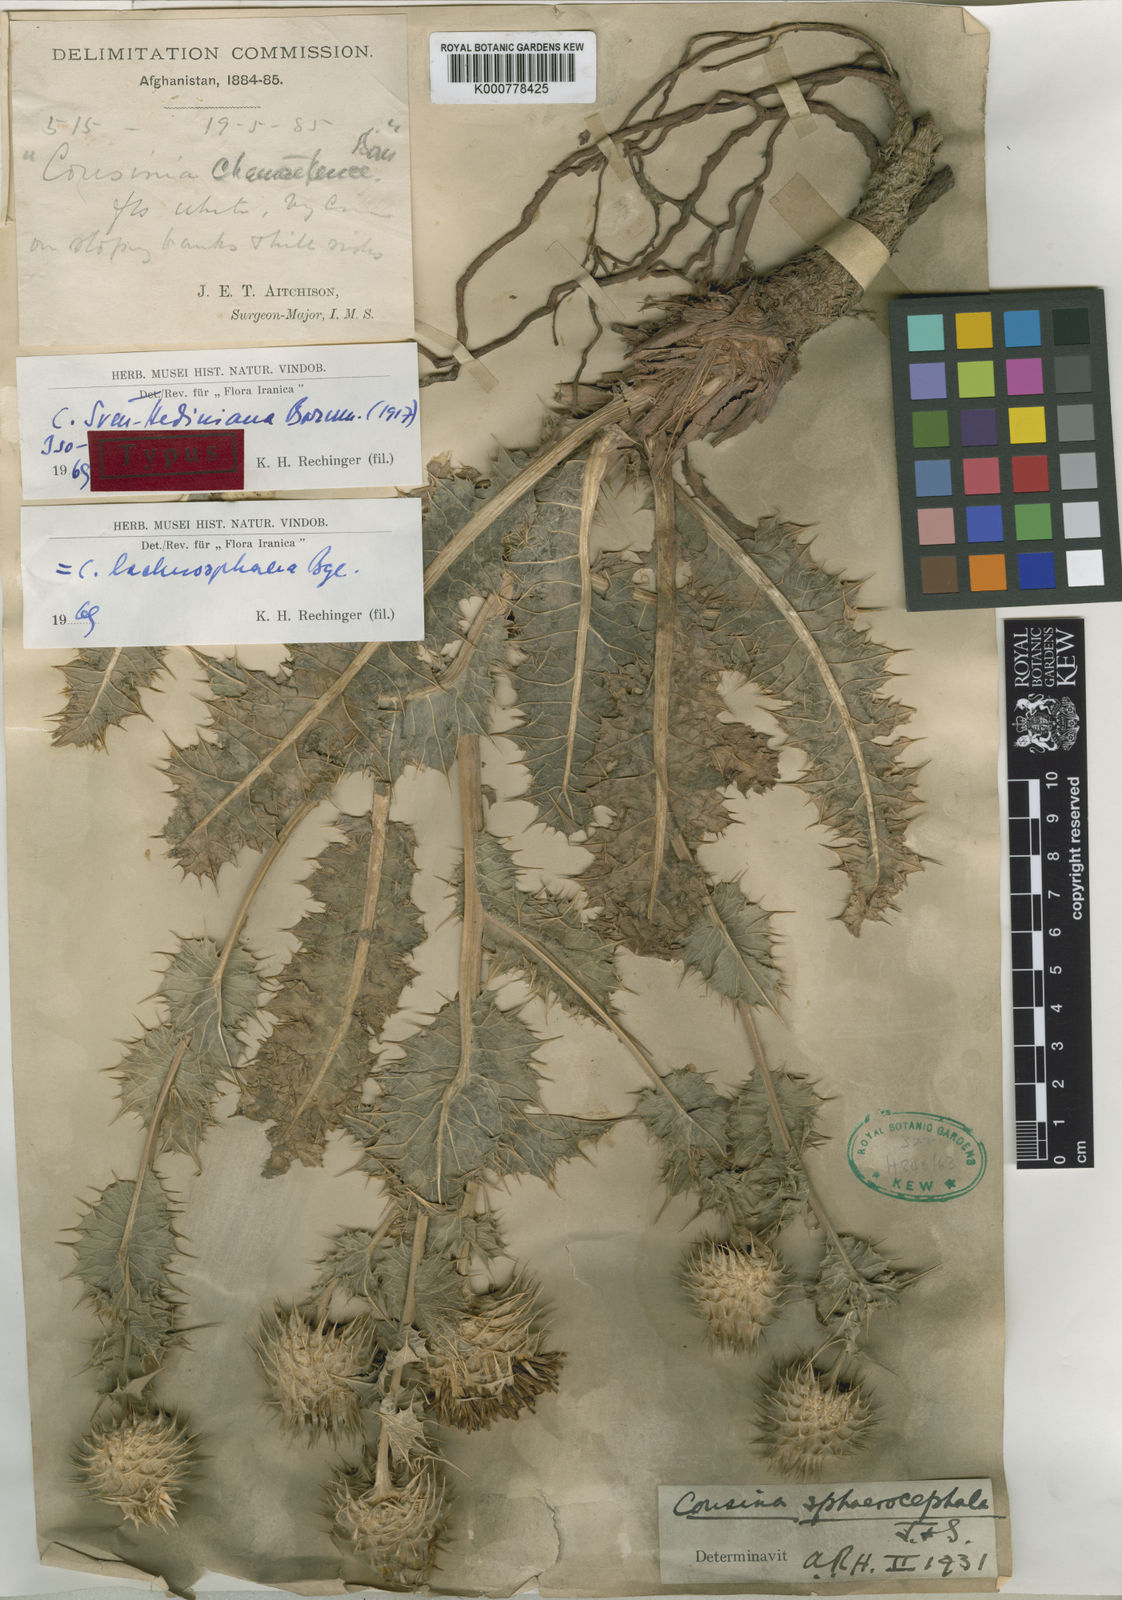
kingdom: Plantae
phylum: Tracheophyta
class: Magnoliopsida
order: Asterales
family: Asteraceae
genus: Cousinia
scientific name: Cousinia lachnosphaera
